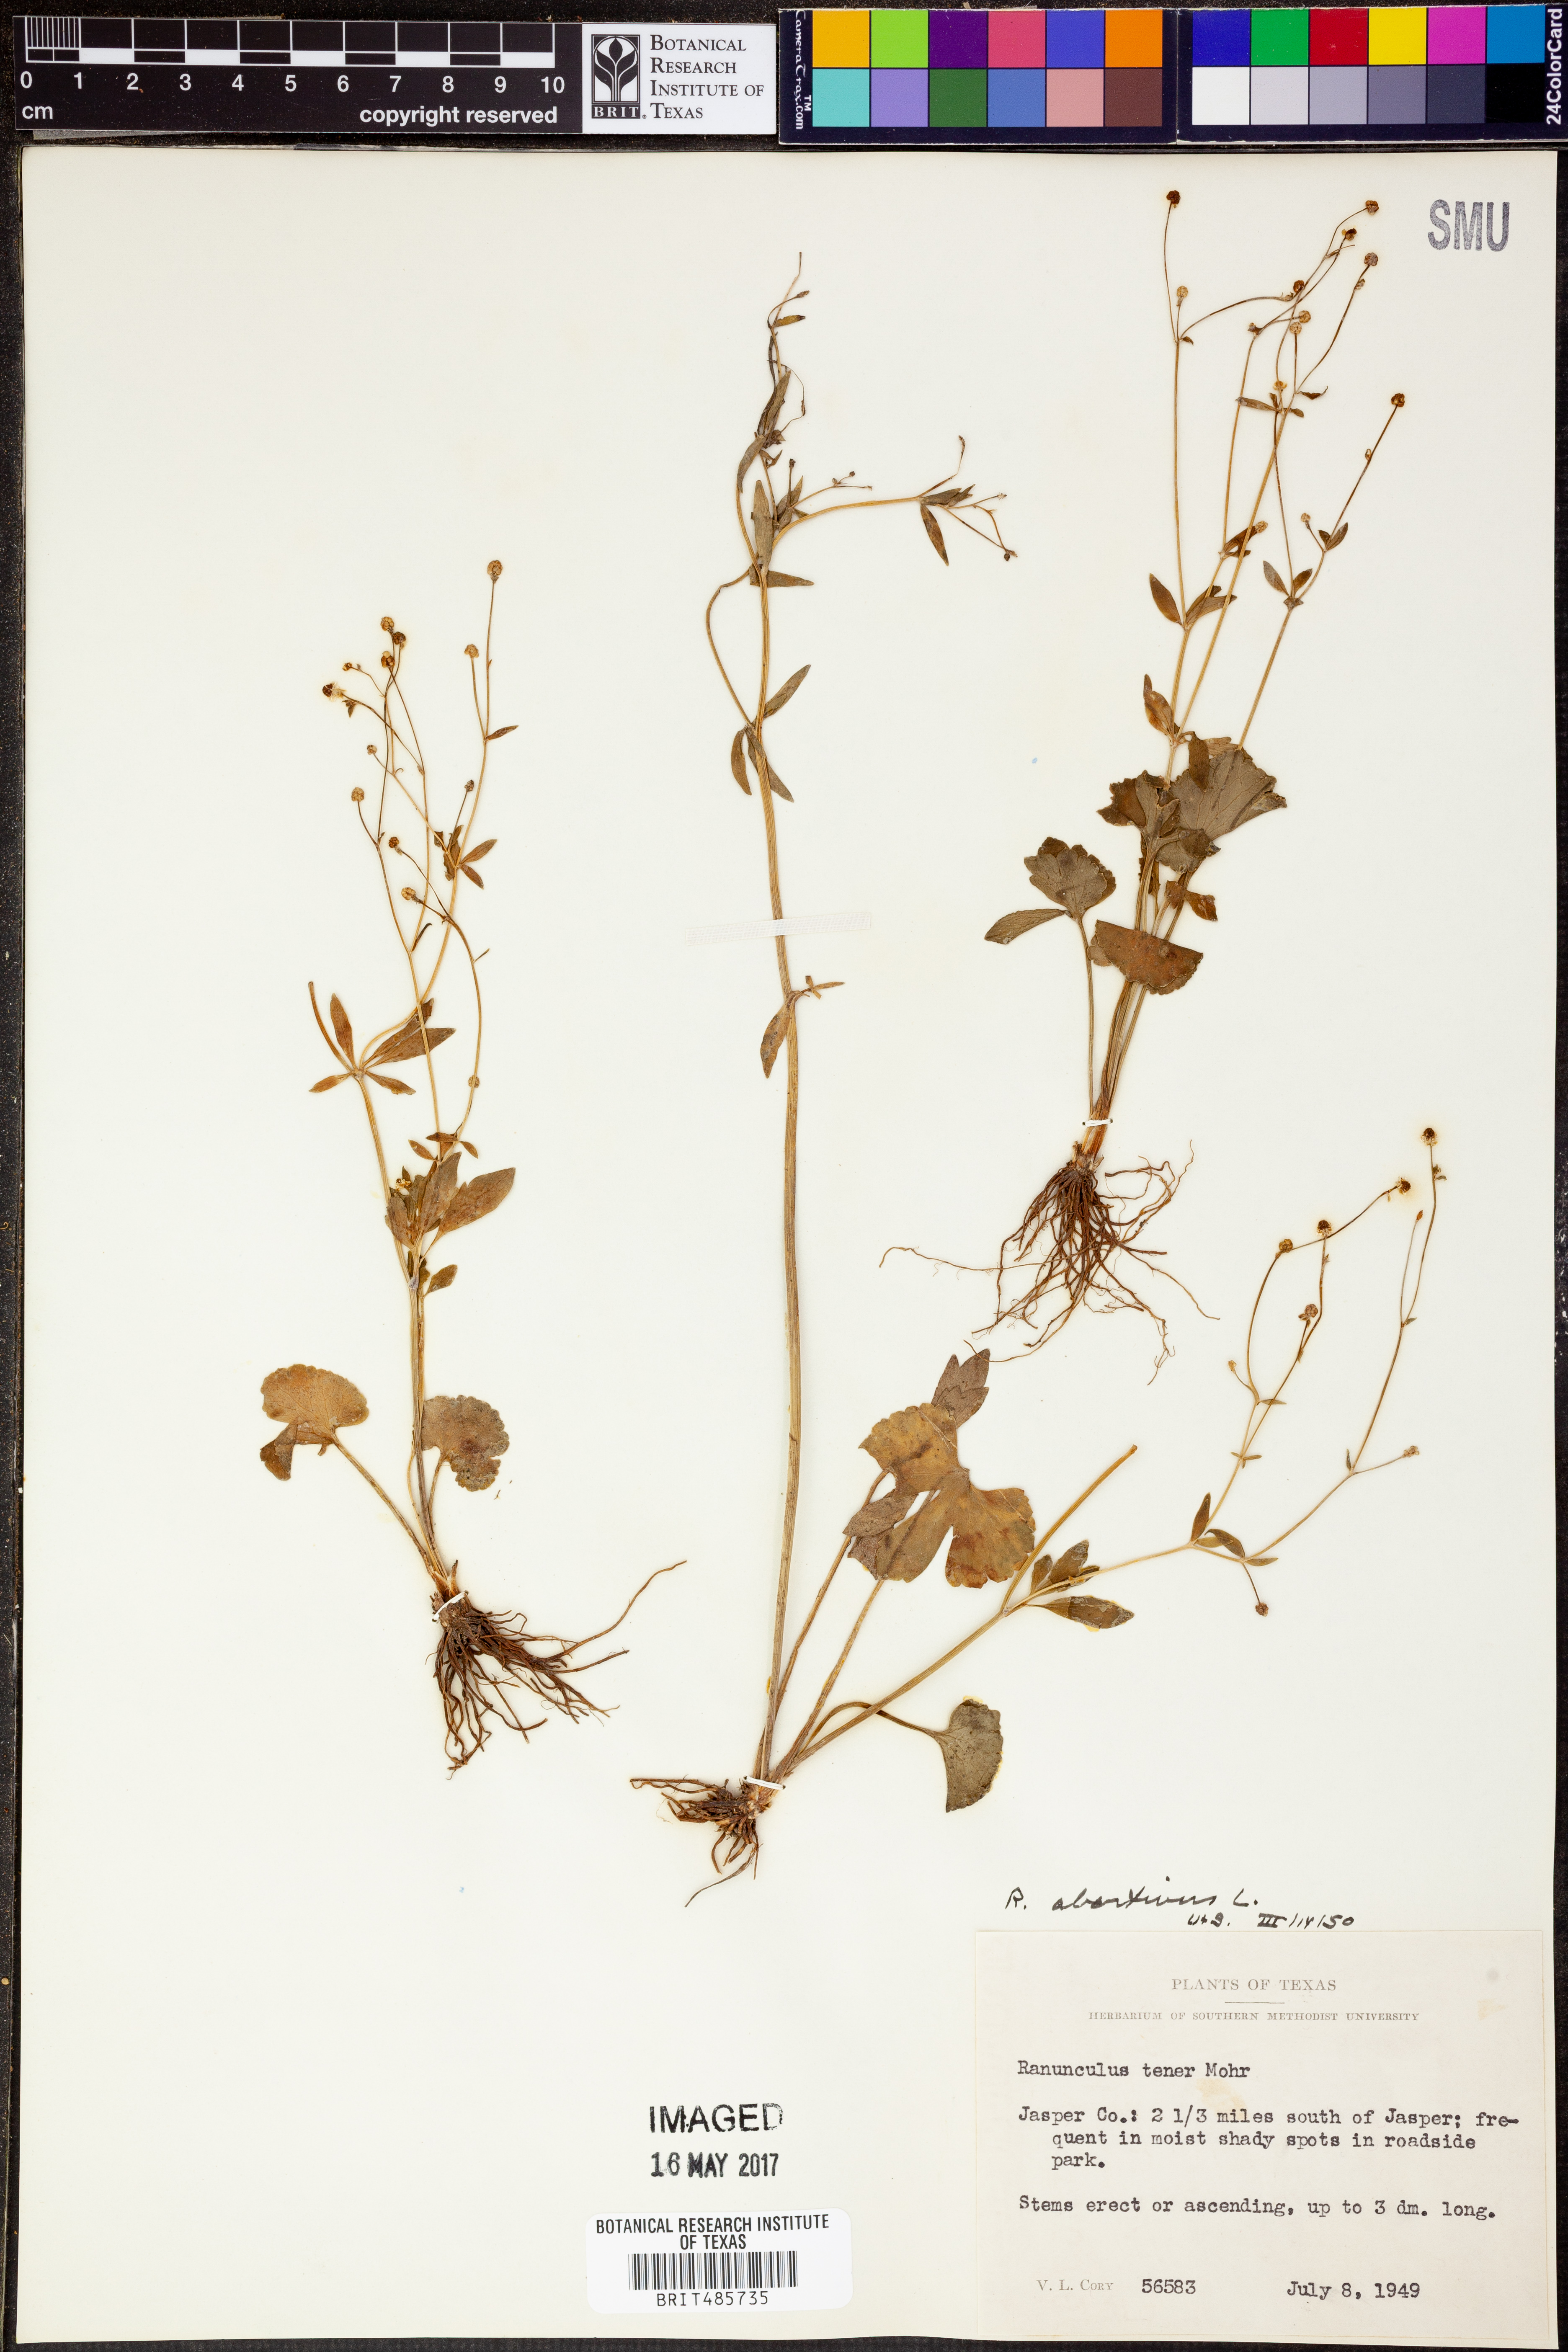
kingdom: Plantae
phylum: Tracheophyta
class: Magnoliopsida
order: Ranunculales
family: Ranunculaceae
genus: Ranunculus
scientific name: Ranunculus abortivus
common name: Early wood buttercup
